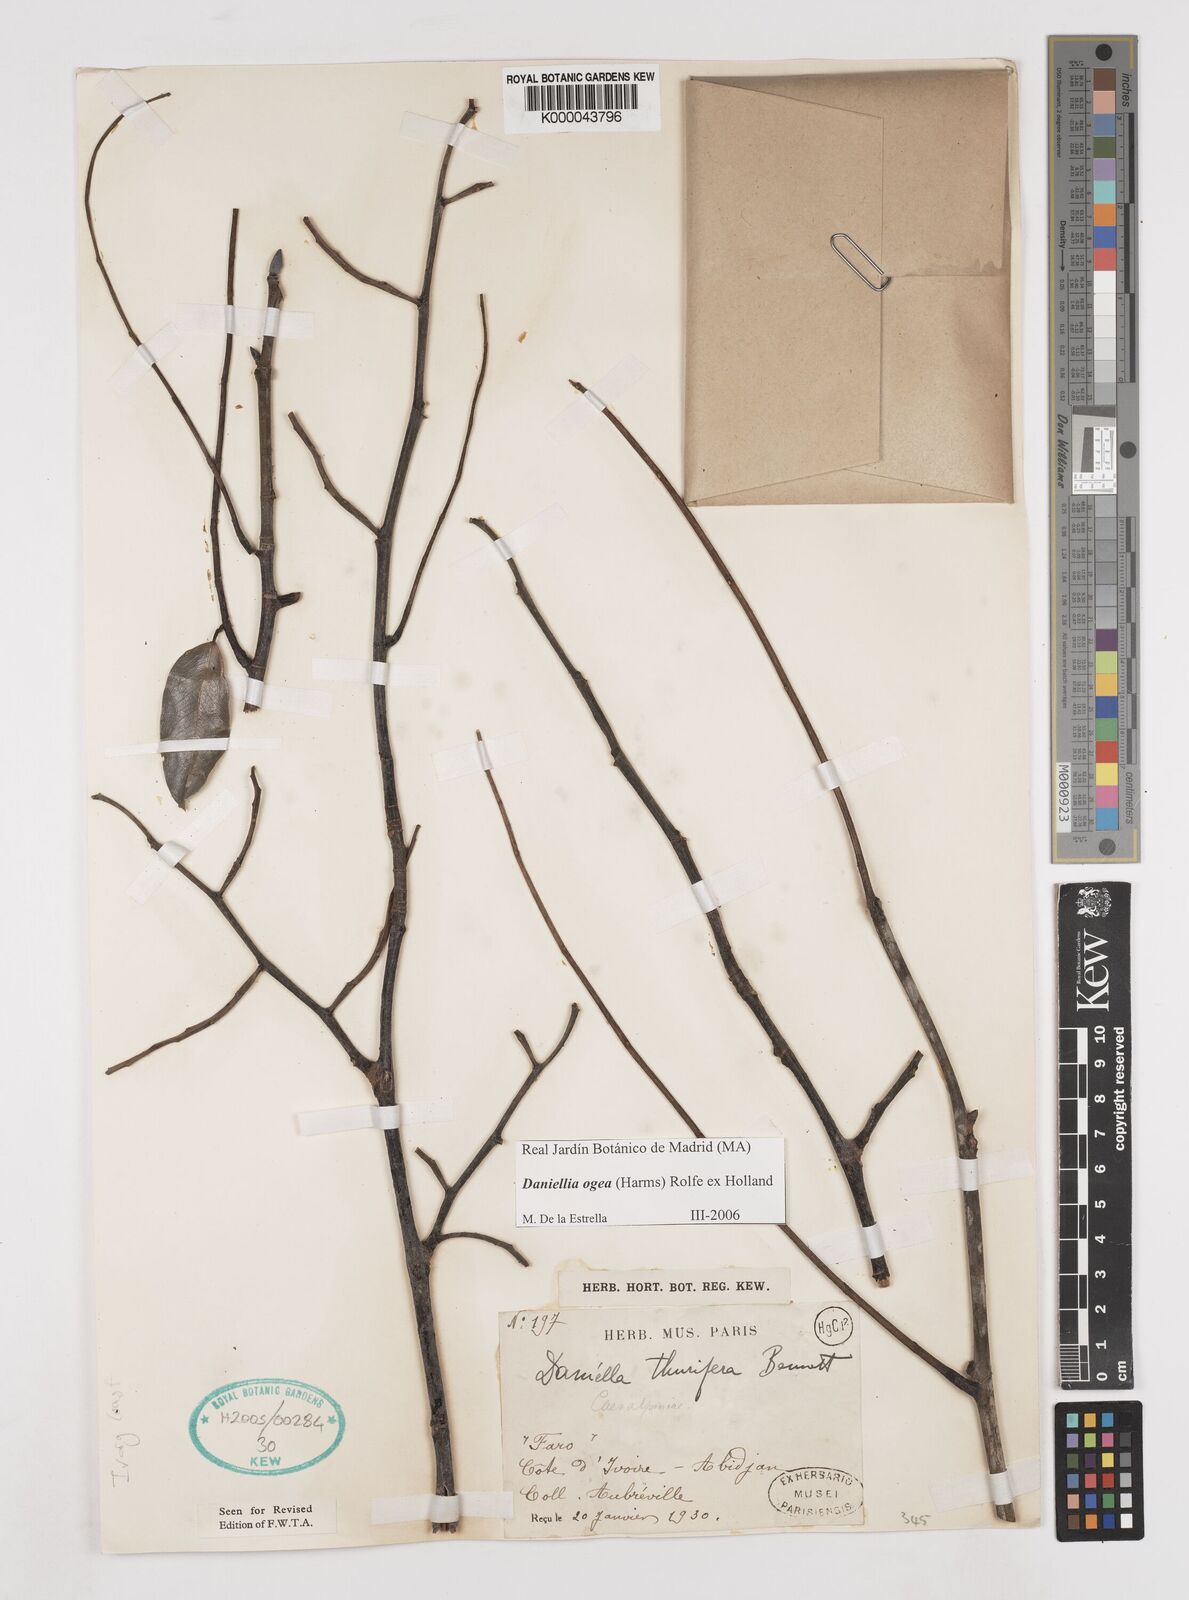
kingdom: Plantae
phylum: Tracheophyta
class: Magnoliopsida
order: Fabales
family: Fabaceae
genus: Daniellia
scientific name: Daniellia thurifera
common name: Sudan copal
